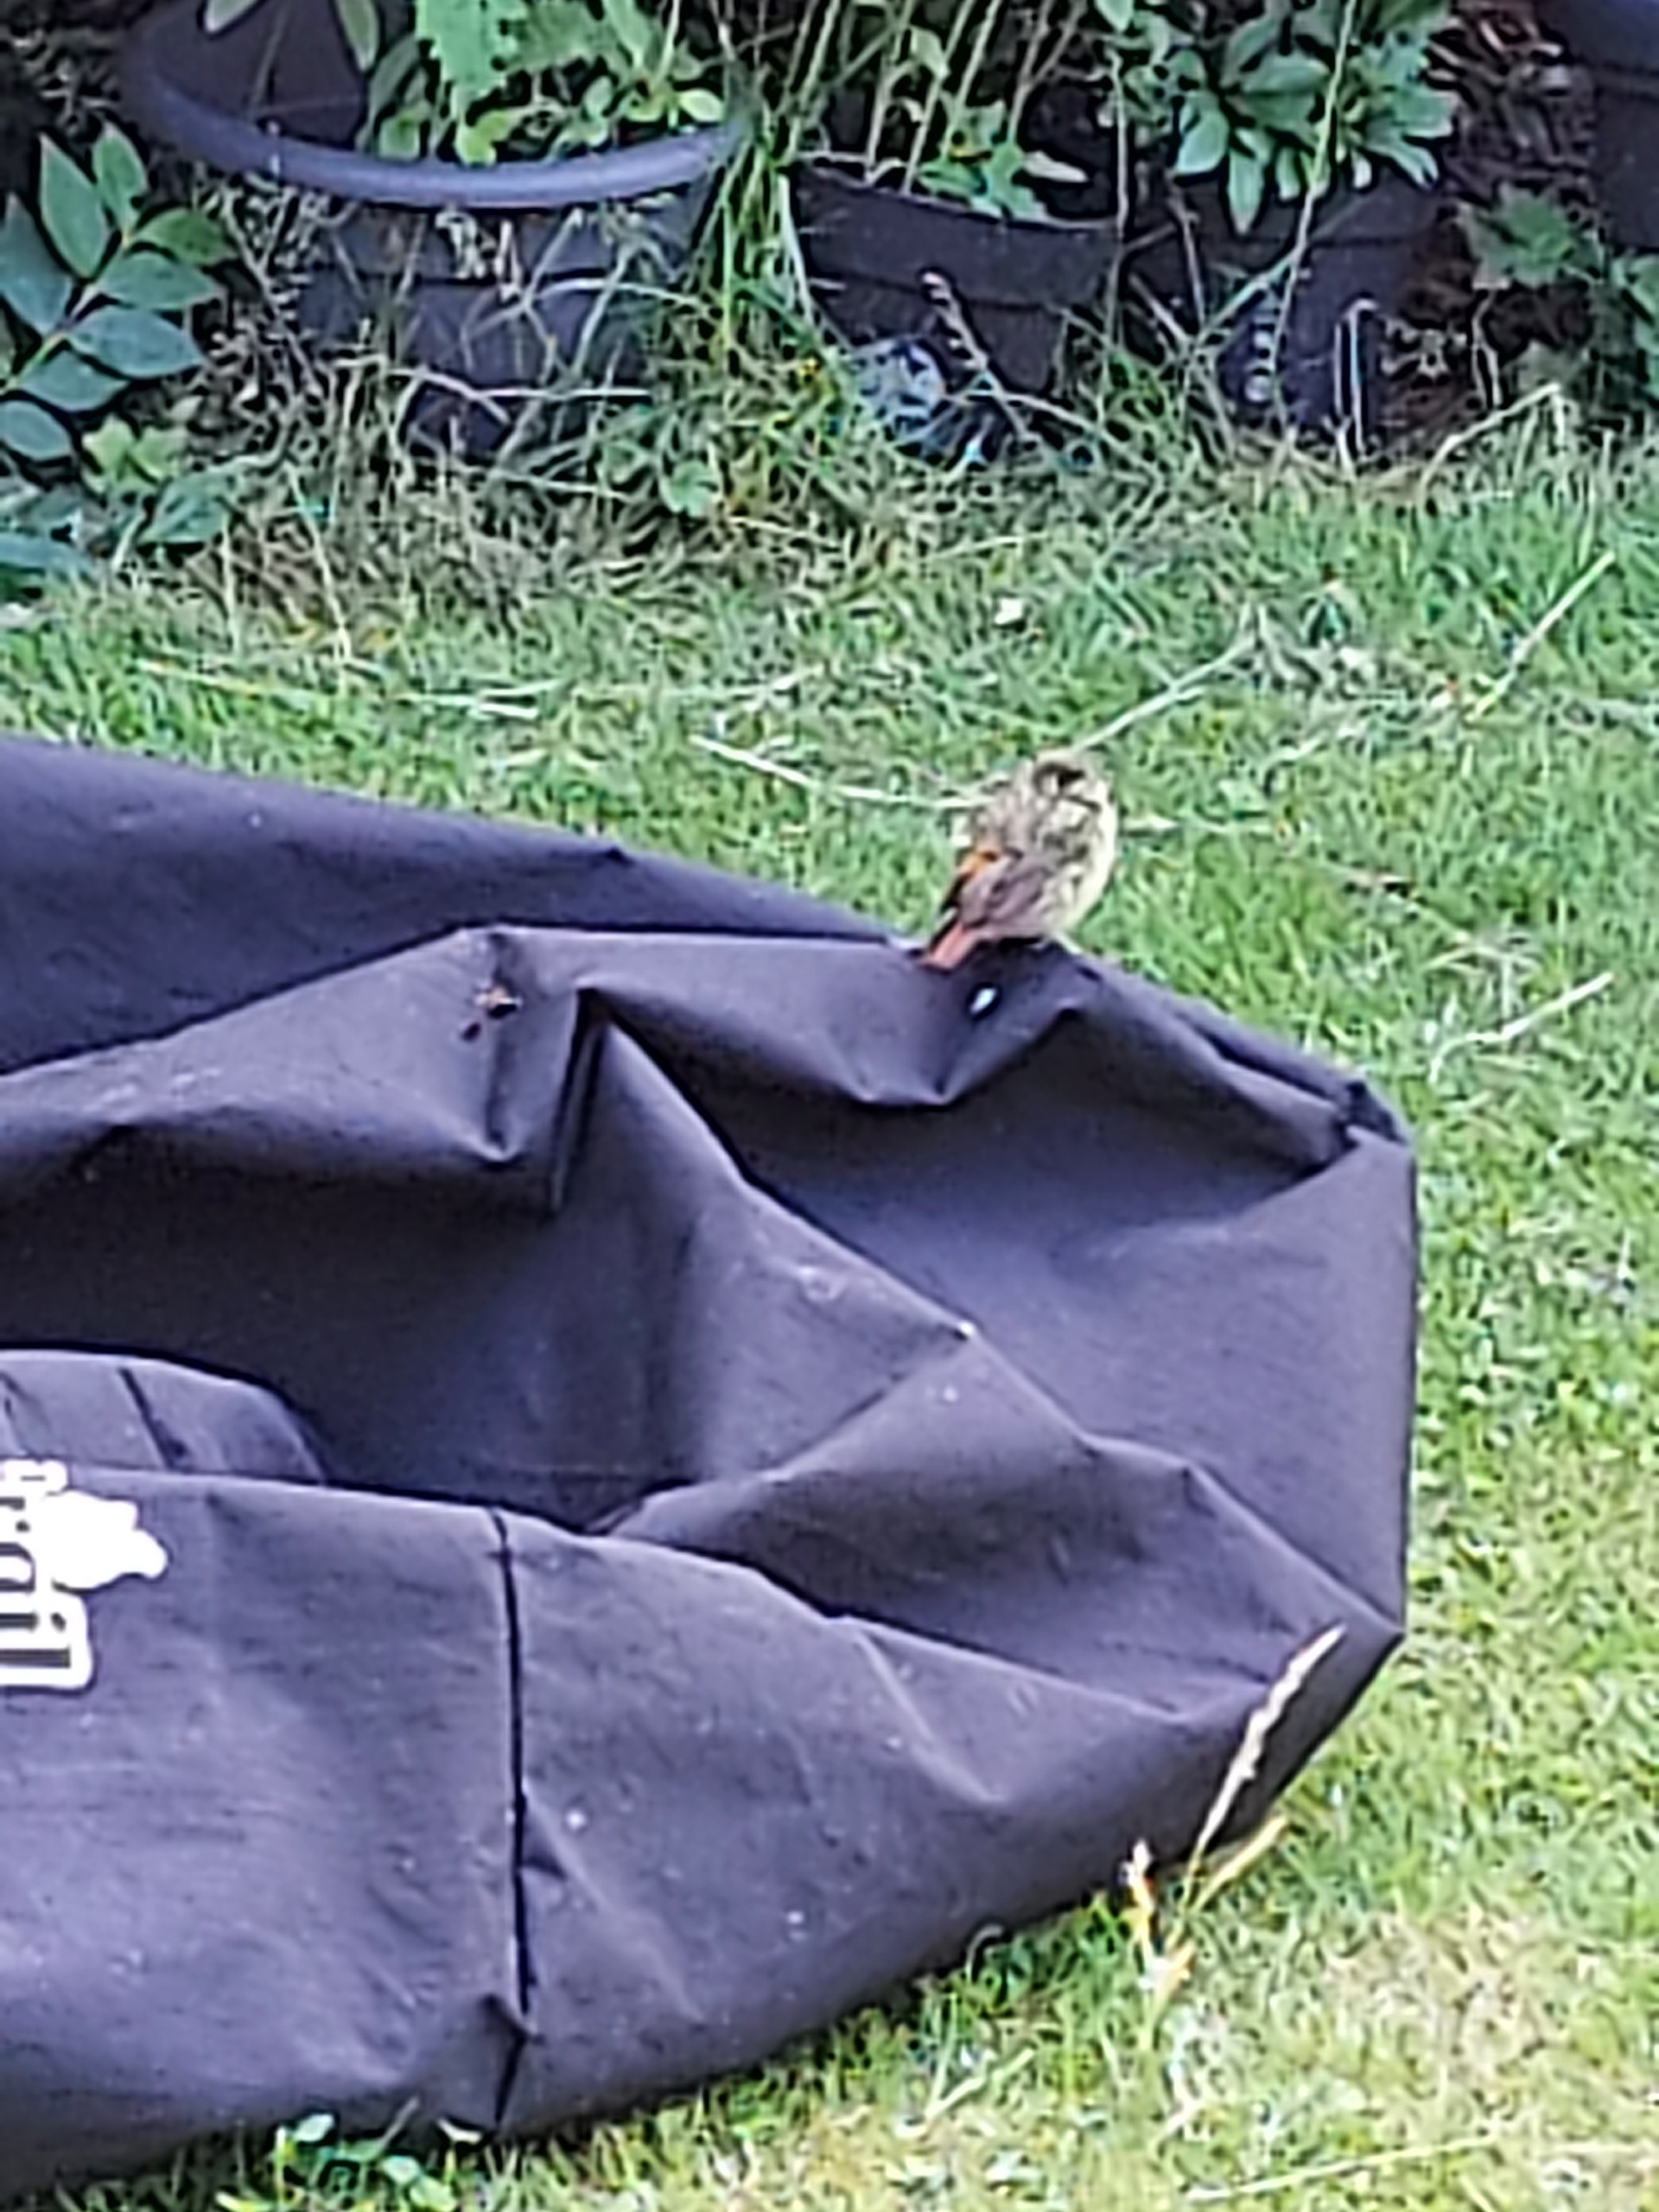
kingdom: Animalia
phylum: Chordata
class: Aves
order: Passeriformes
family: Muscicapidae
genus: Phoenicurus
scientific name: Phoenicurus phoenicurus
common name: Rødstjert
